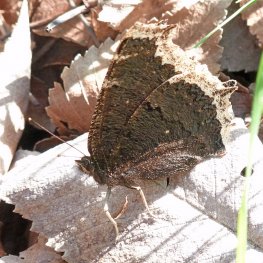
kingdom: Animalia
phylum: Arthropoda
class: Insecta
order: Lepidoptera
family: Nymphalidae
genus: Nymphalis
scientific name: Nymphalis antiopa
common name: Mourning Cloak
